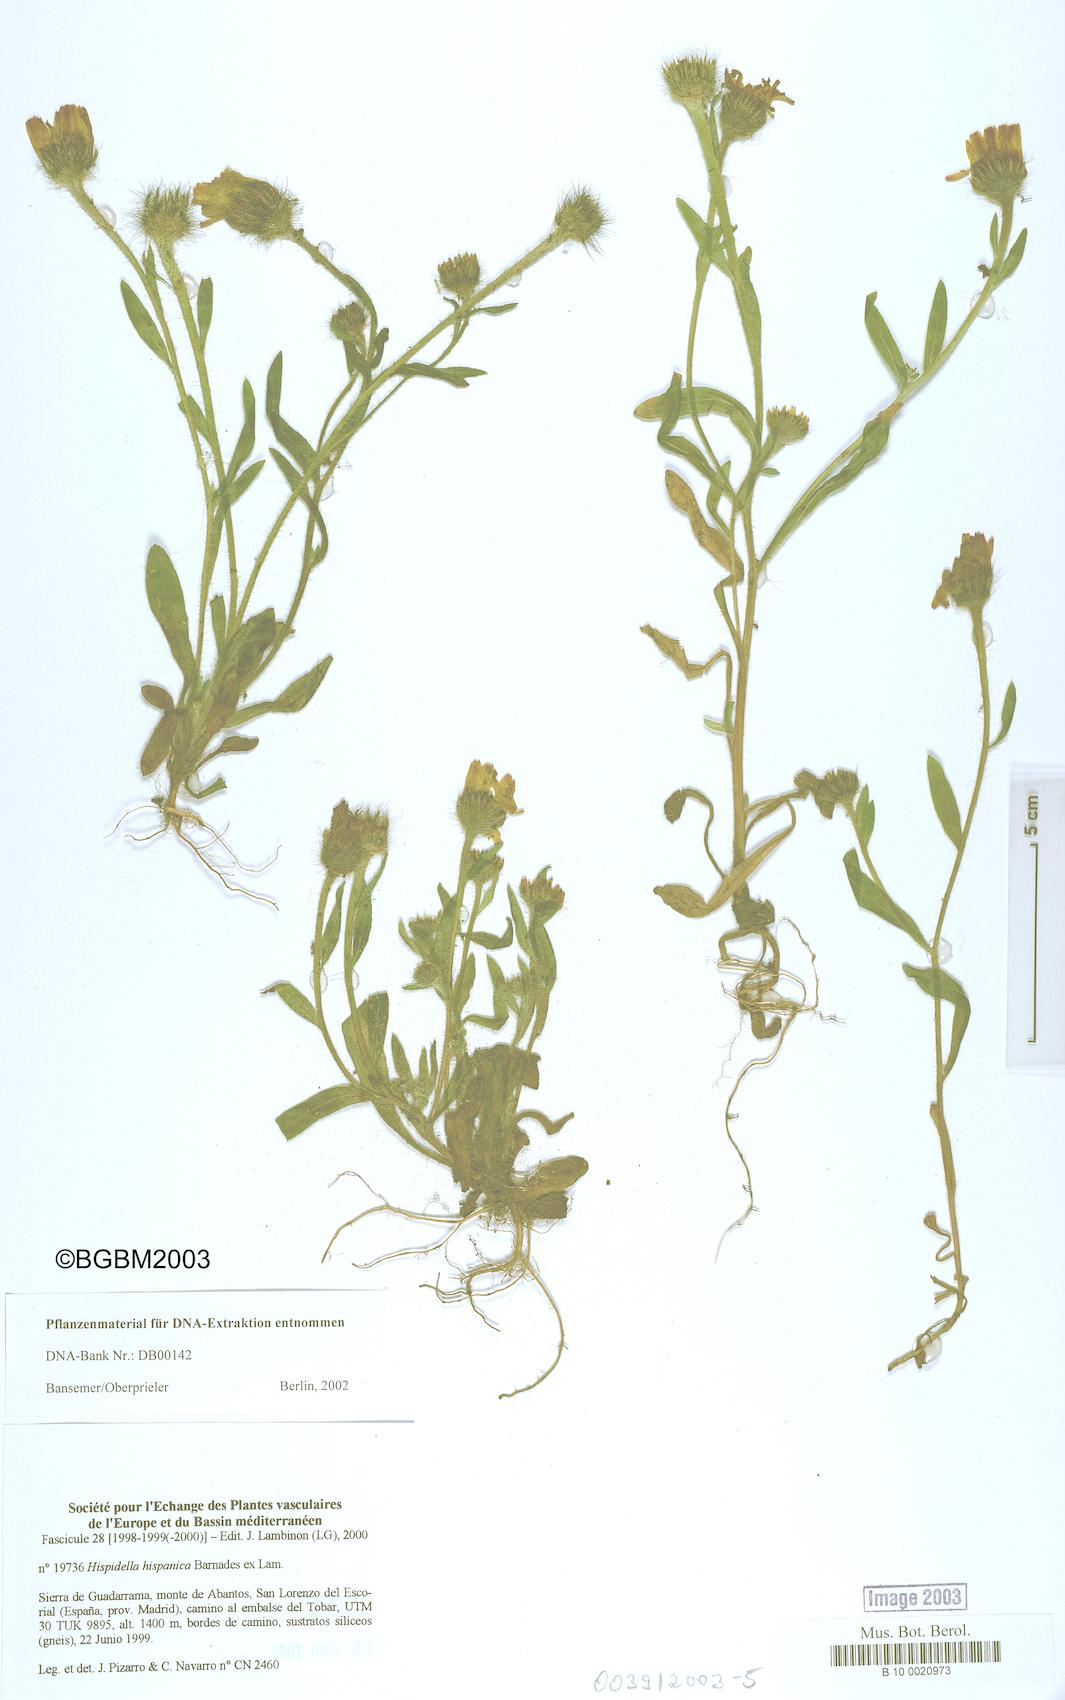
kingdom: Plantae
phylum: Tracheophyta
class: Magnoliopsida
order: Asterales
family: Asteraceae
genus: Hispidella
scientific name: Hispidella hispanica
